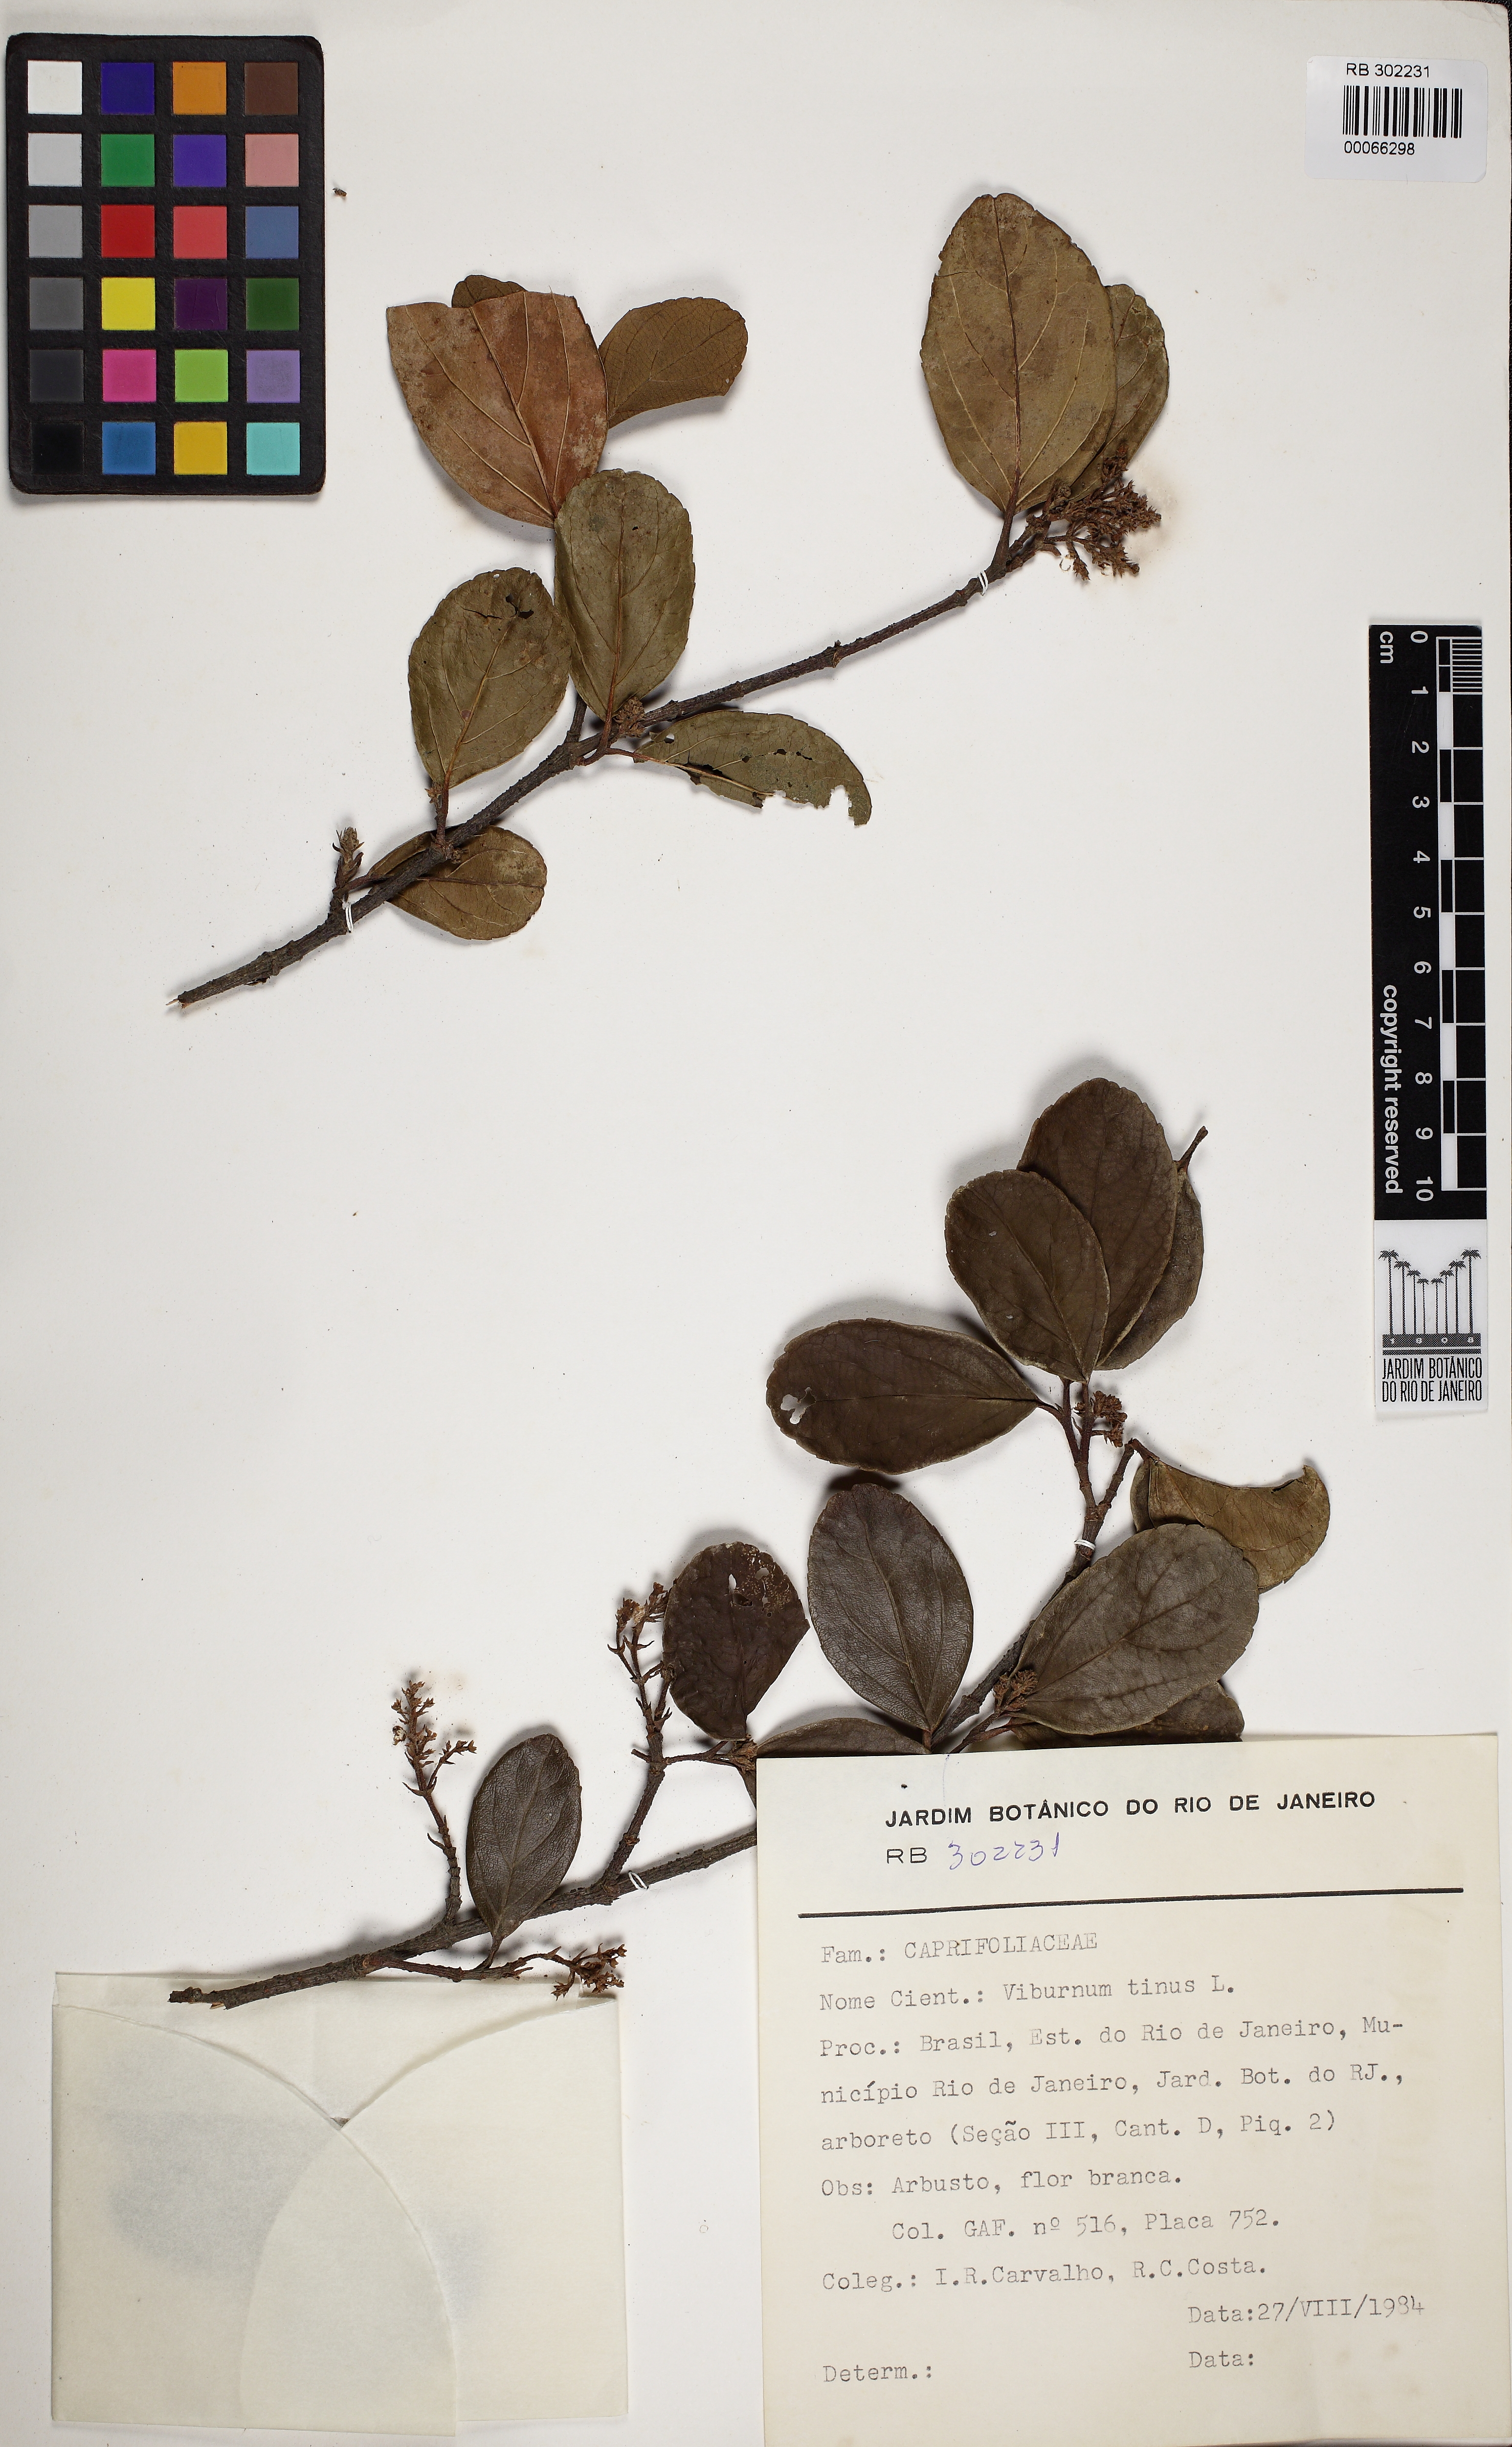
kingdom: Plantae
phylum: Tracheophyta
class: Magnoliopsida
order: Dipsacales
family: Viburnaceae
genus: Viburnum
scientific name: Viburnum tinus
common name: Laurustinus
